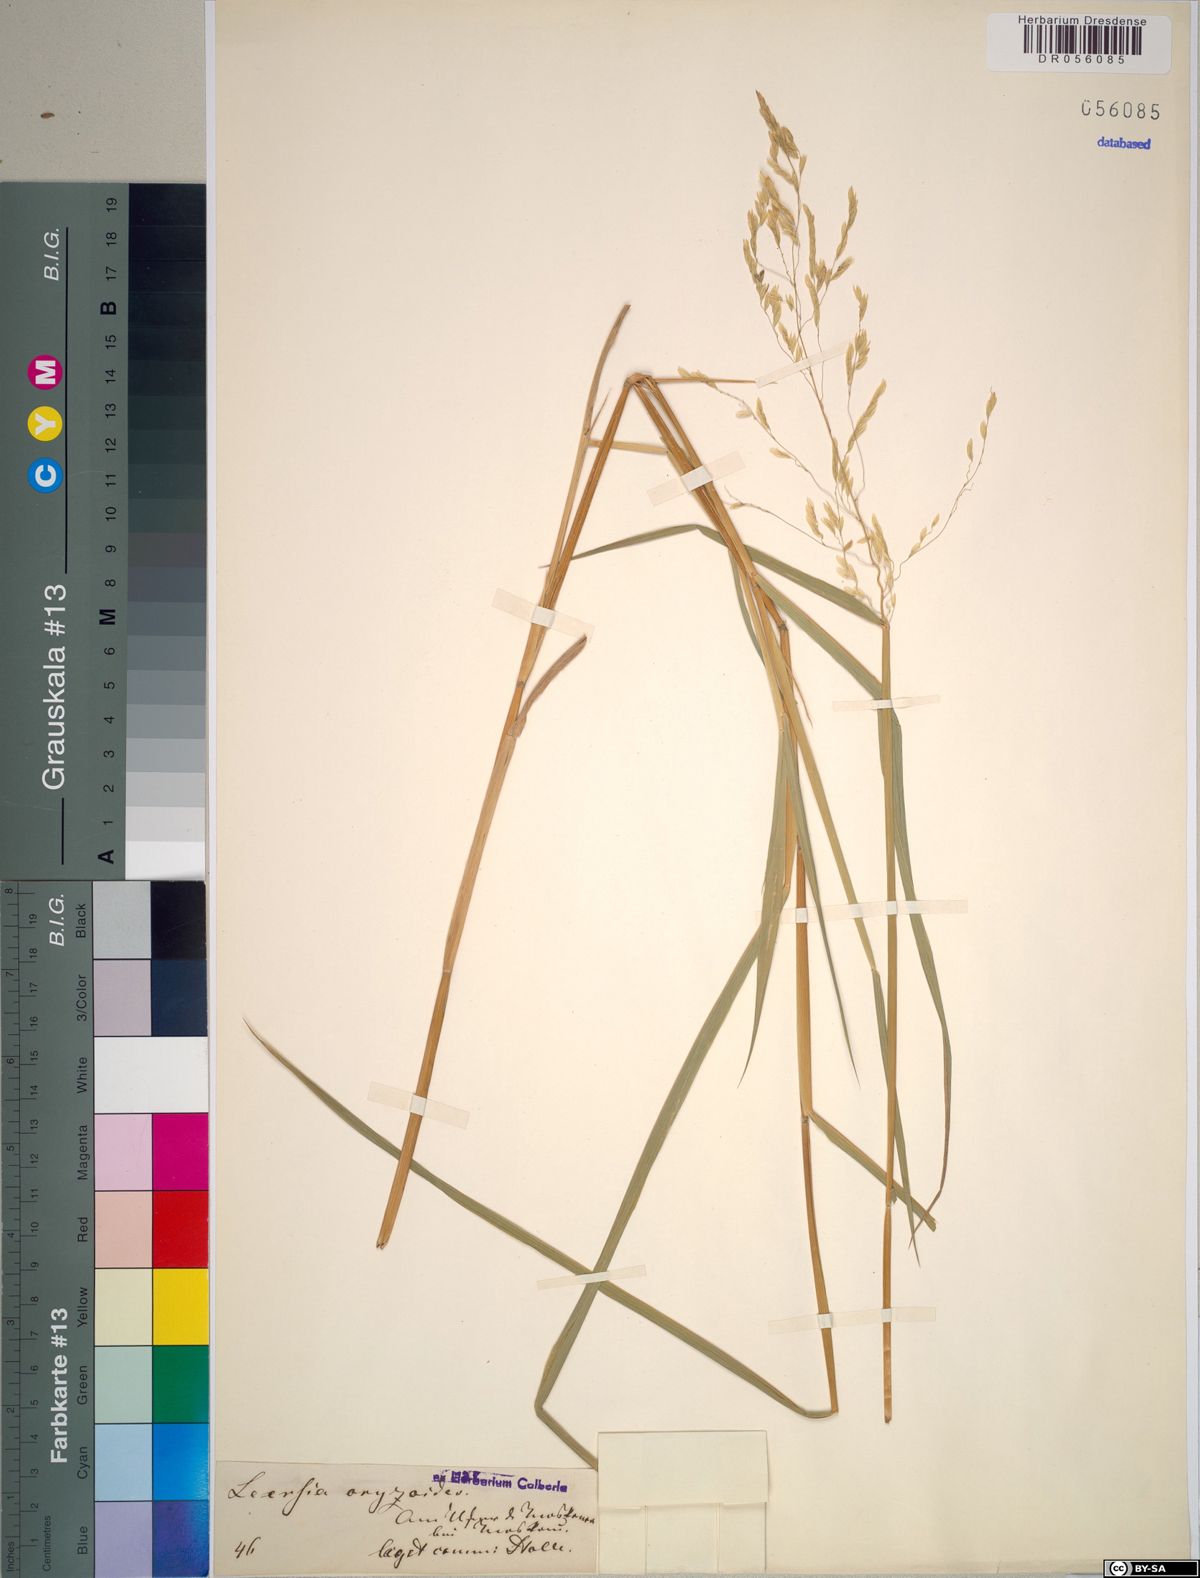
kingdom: Plantae
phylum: Tracheophyta
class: Liliopsida
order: Poales
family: Poaceae
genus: Leersia
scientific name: Leersia oryzoides
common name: Cut-grass
